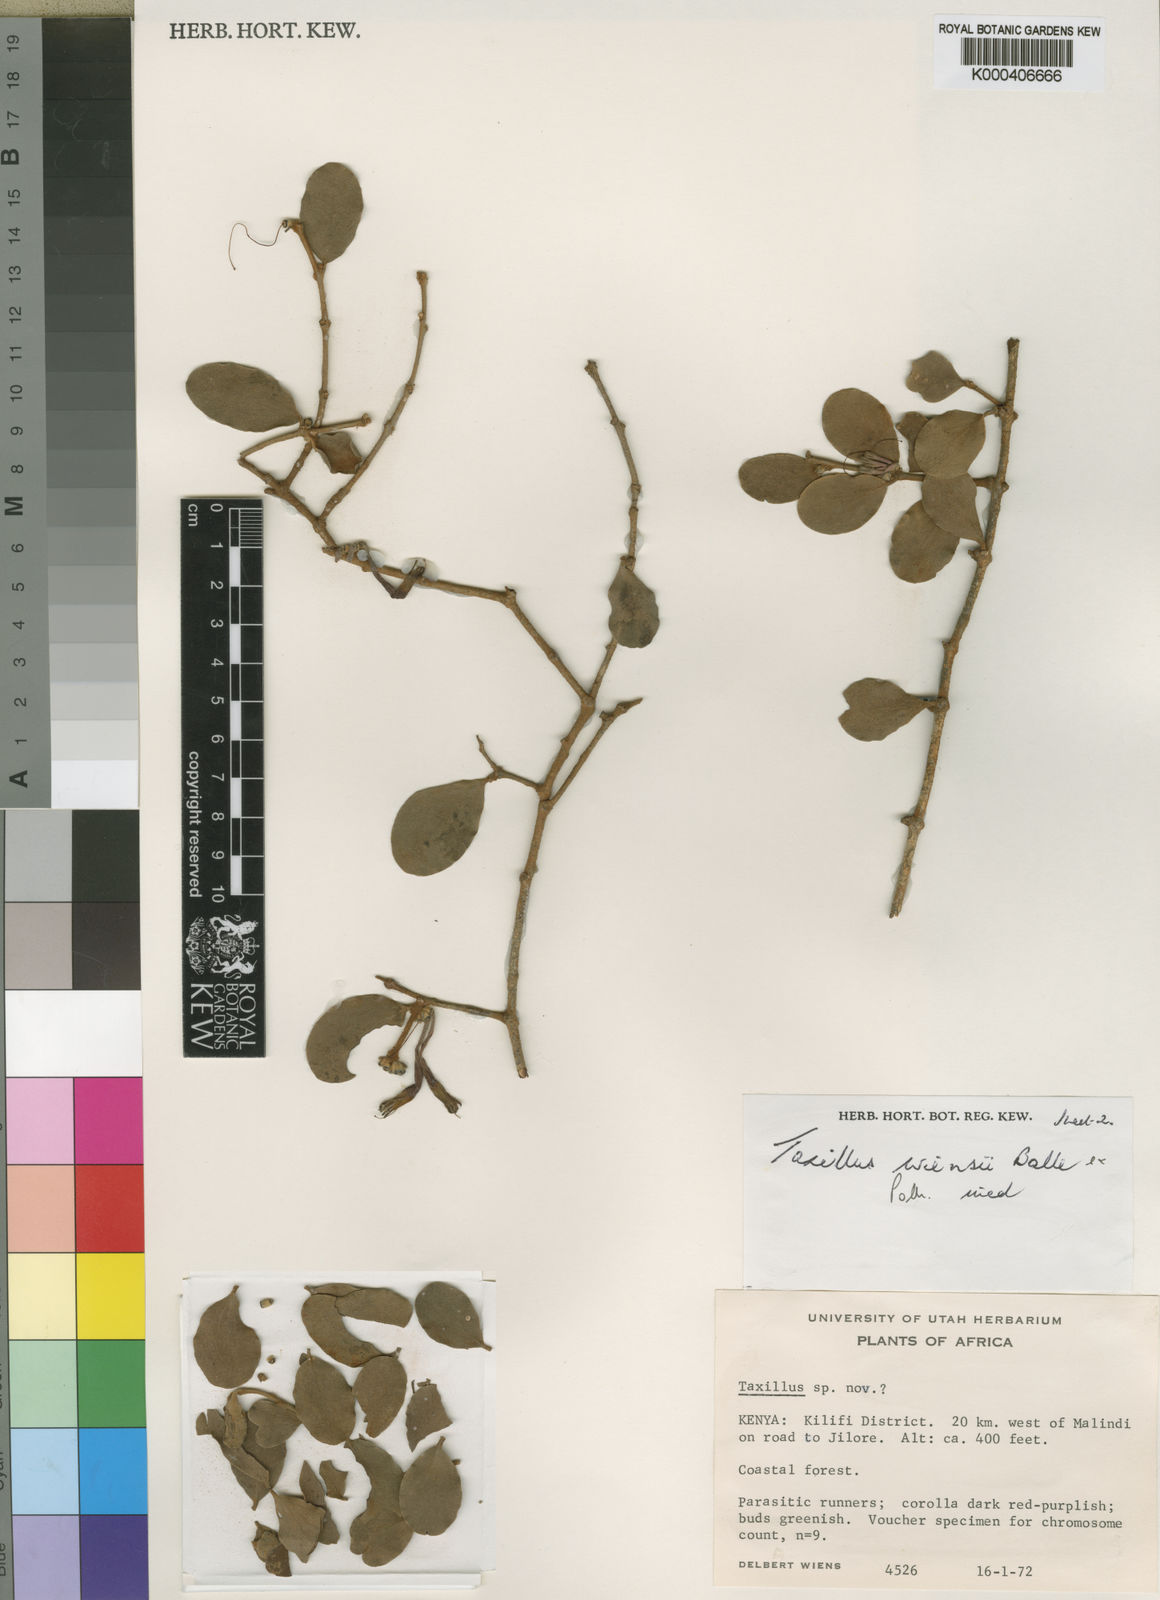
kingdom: Plantae
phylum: Tracheophyta
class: Magnoliopsida
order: Santalales
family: Loranthaceae
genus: Taxillus
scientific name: Taxillus wiensii
